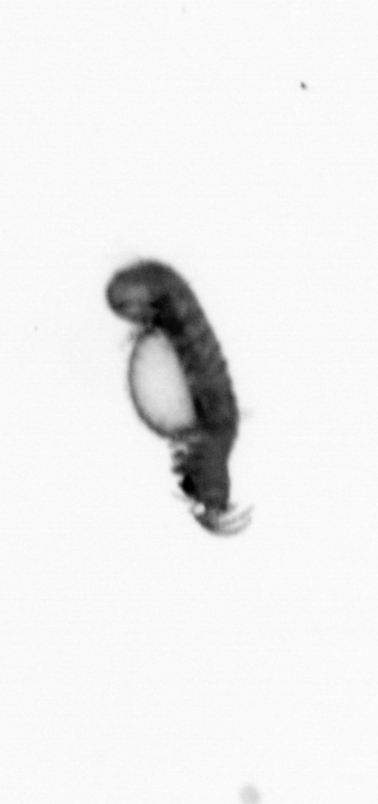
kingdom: Animalia
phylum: Annelida
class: Polychaeta
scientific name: Polychaeta
